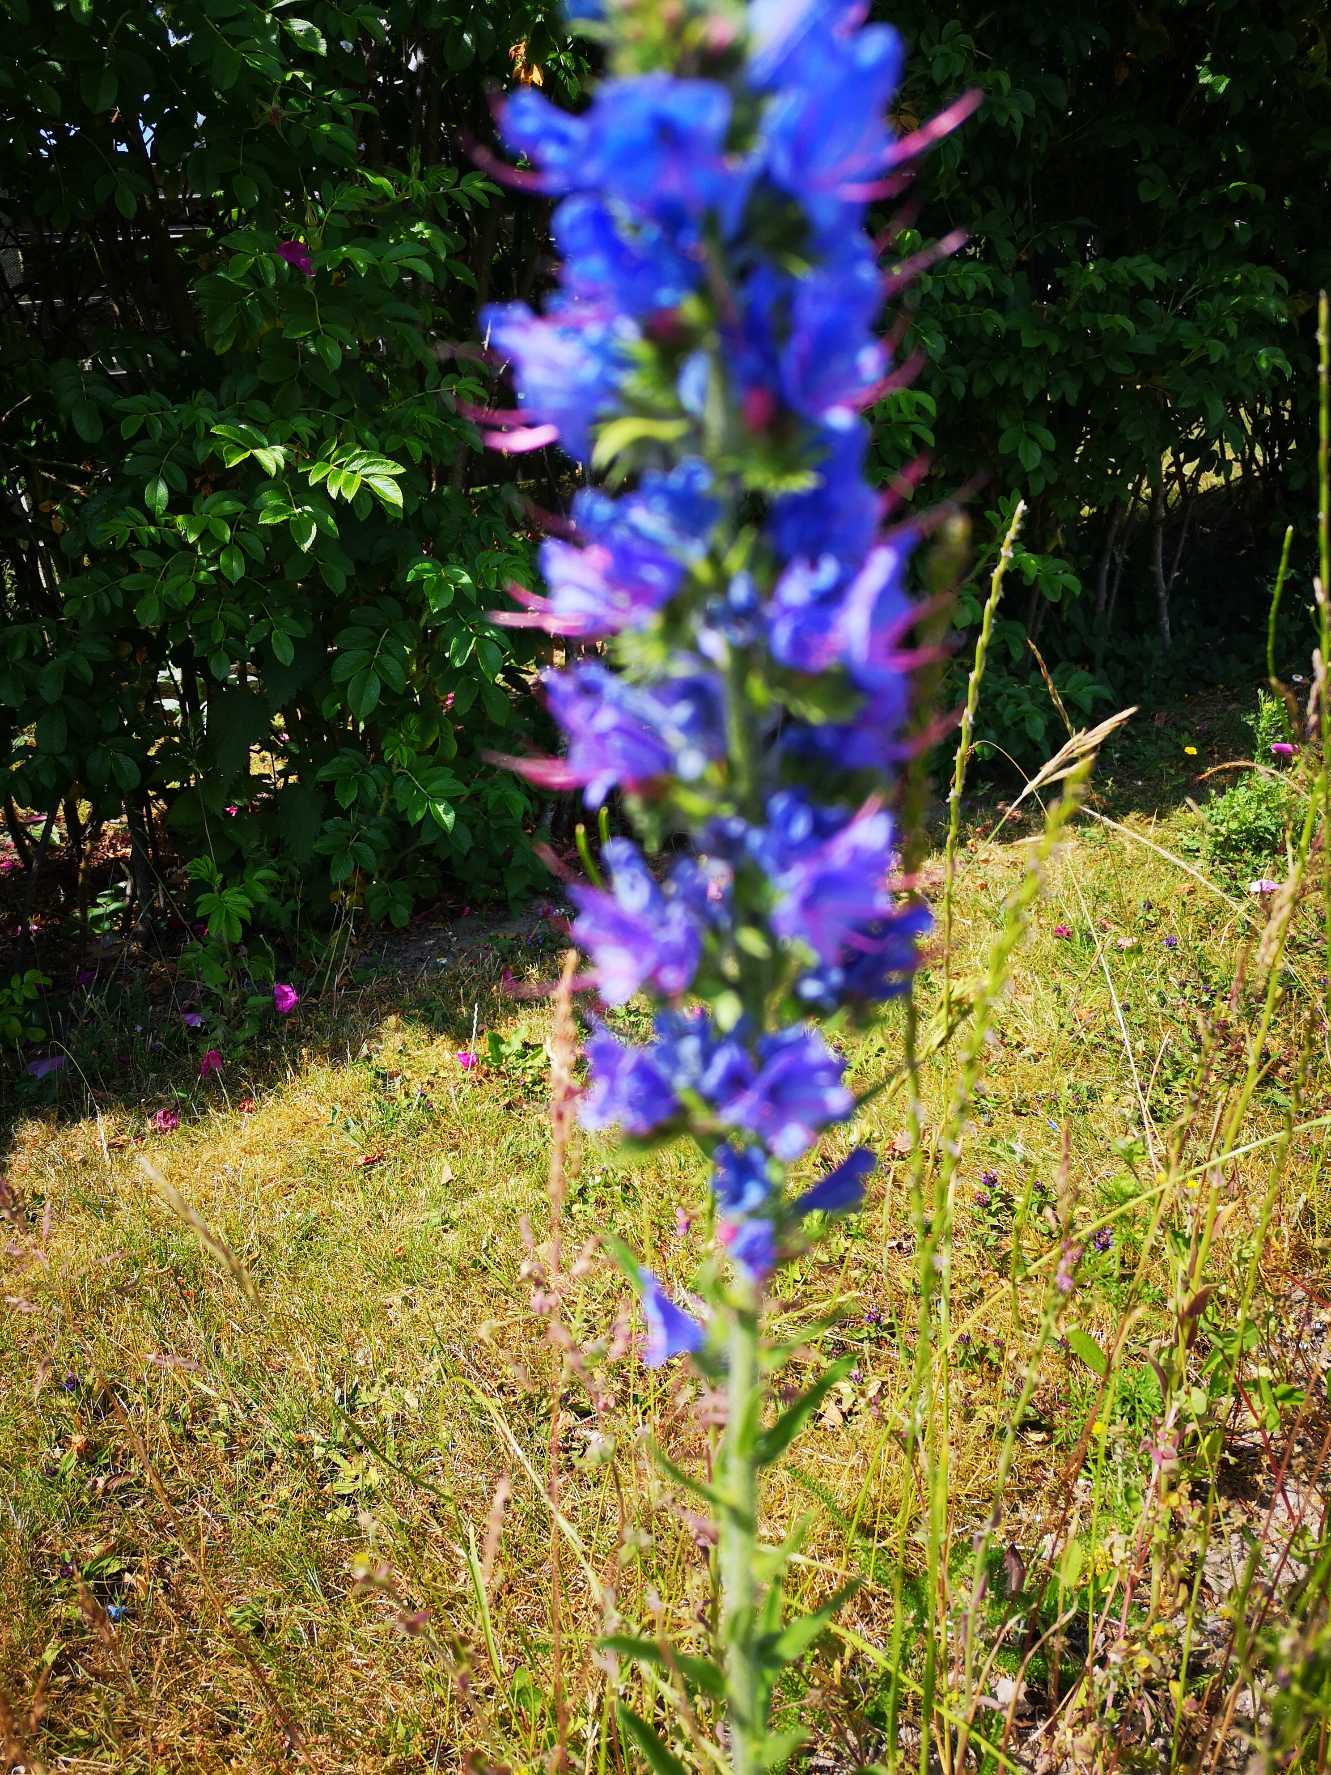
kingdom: Plantae
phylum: Tracheophyta
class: Magnoliopsida
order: Boraginales
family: Boraginaceae
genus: Echium
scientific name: Echium vulgare
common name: Slangehoved
